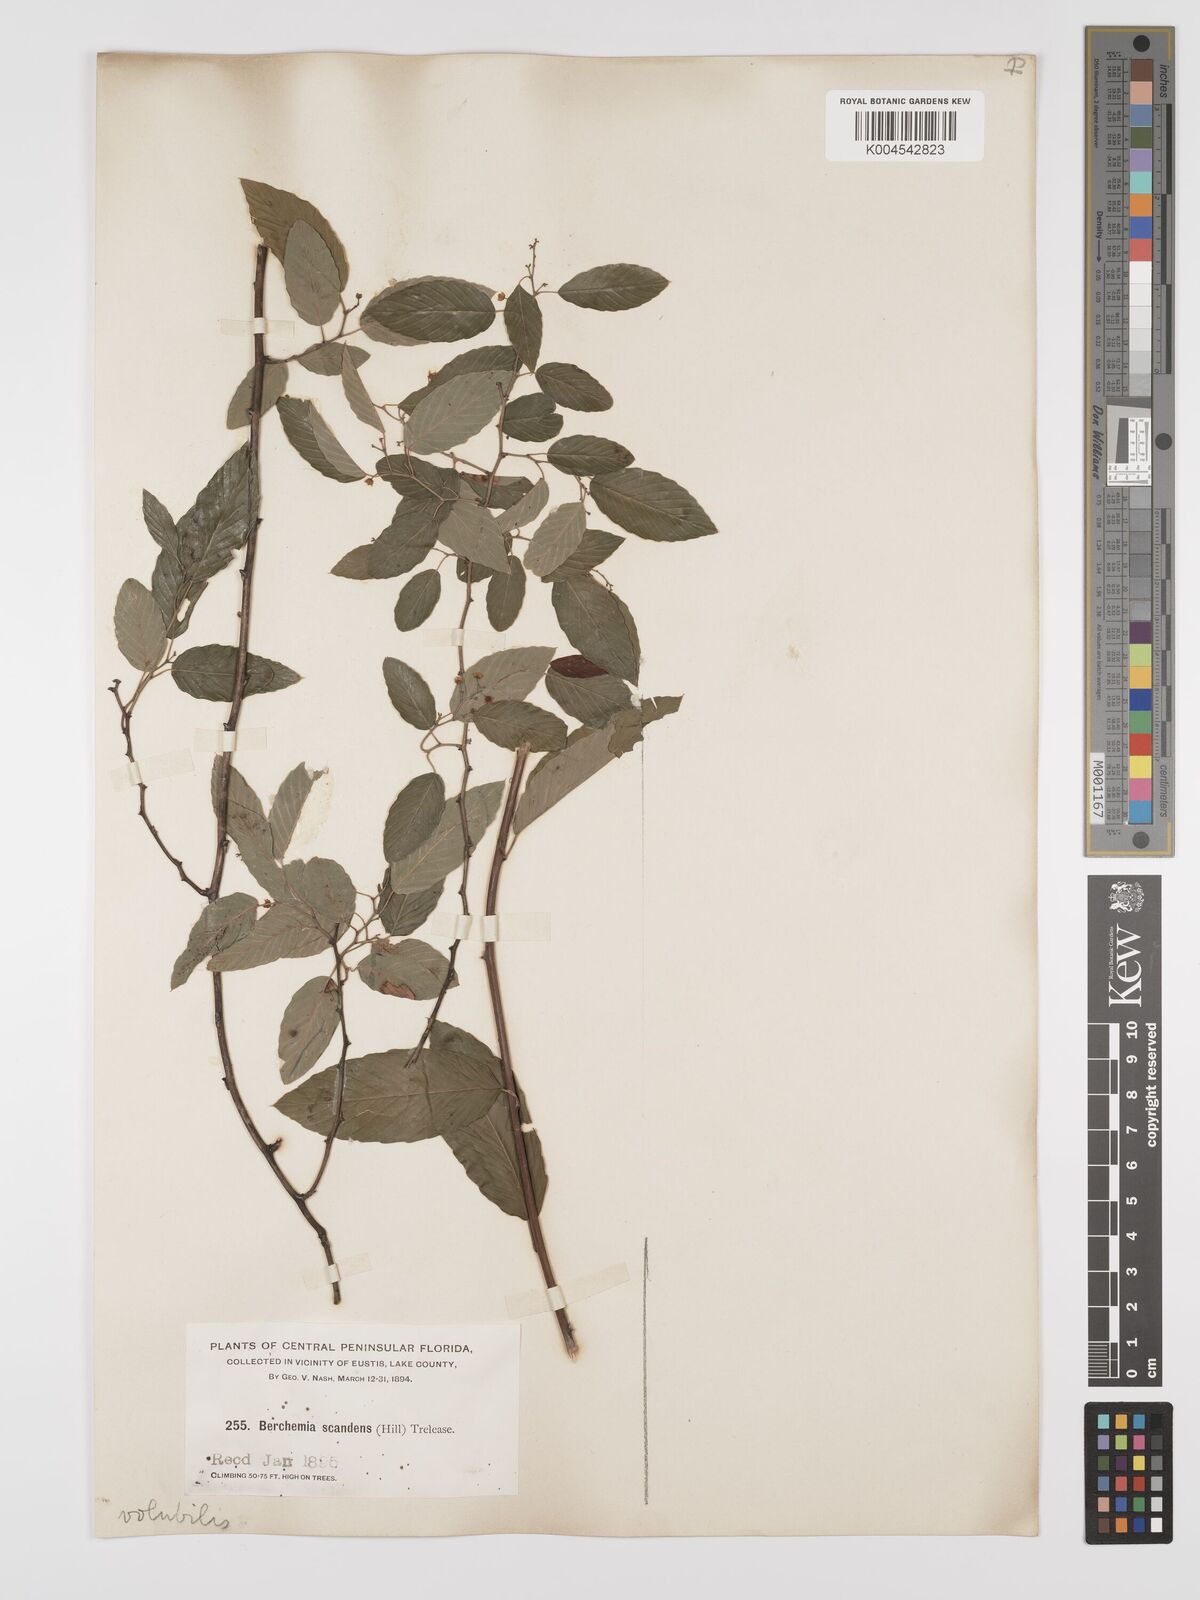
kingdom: Plantae
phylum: Tracheophyta
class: Magnoliopsida
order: Rosales
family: Rhamnaceae
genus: Berchemia
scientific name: Berchemia scandens
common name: Supplejack
